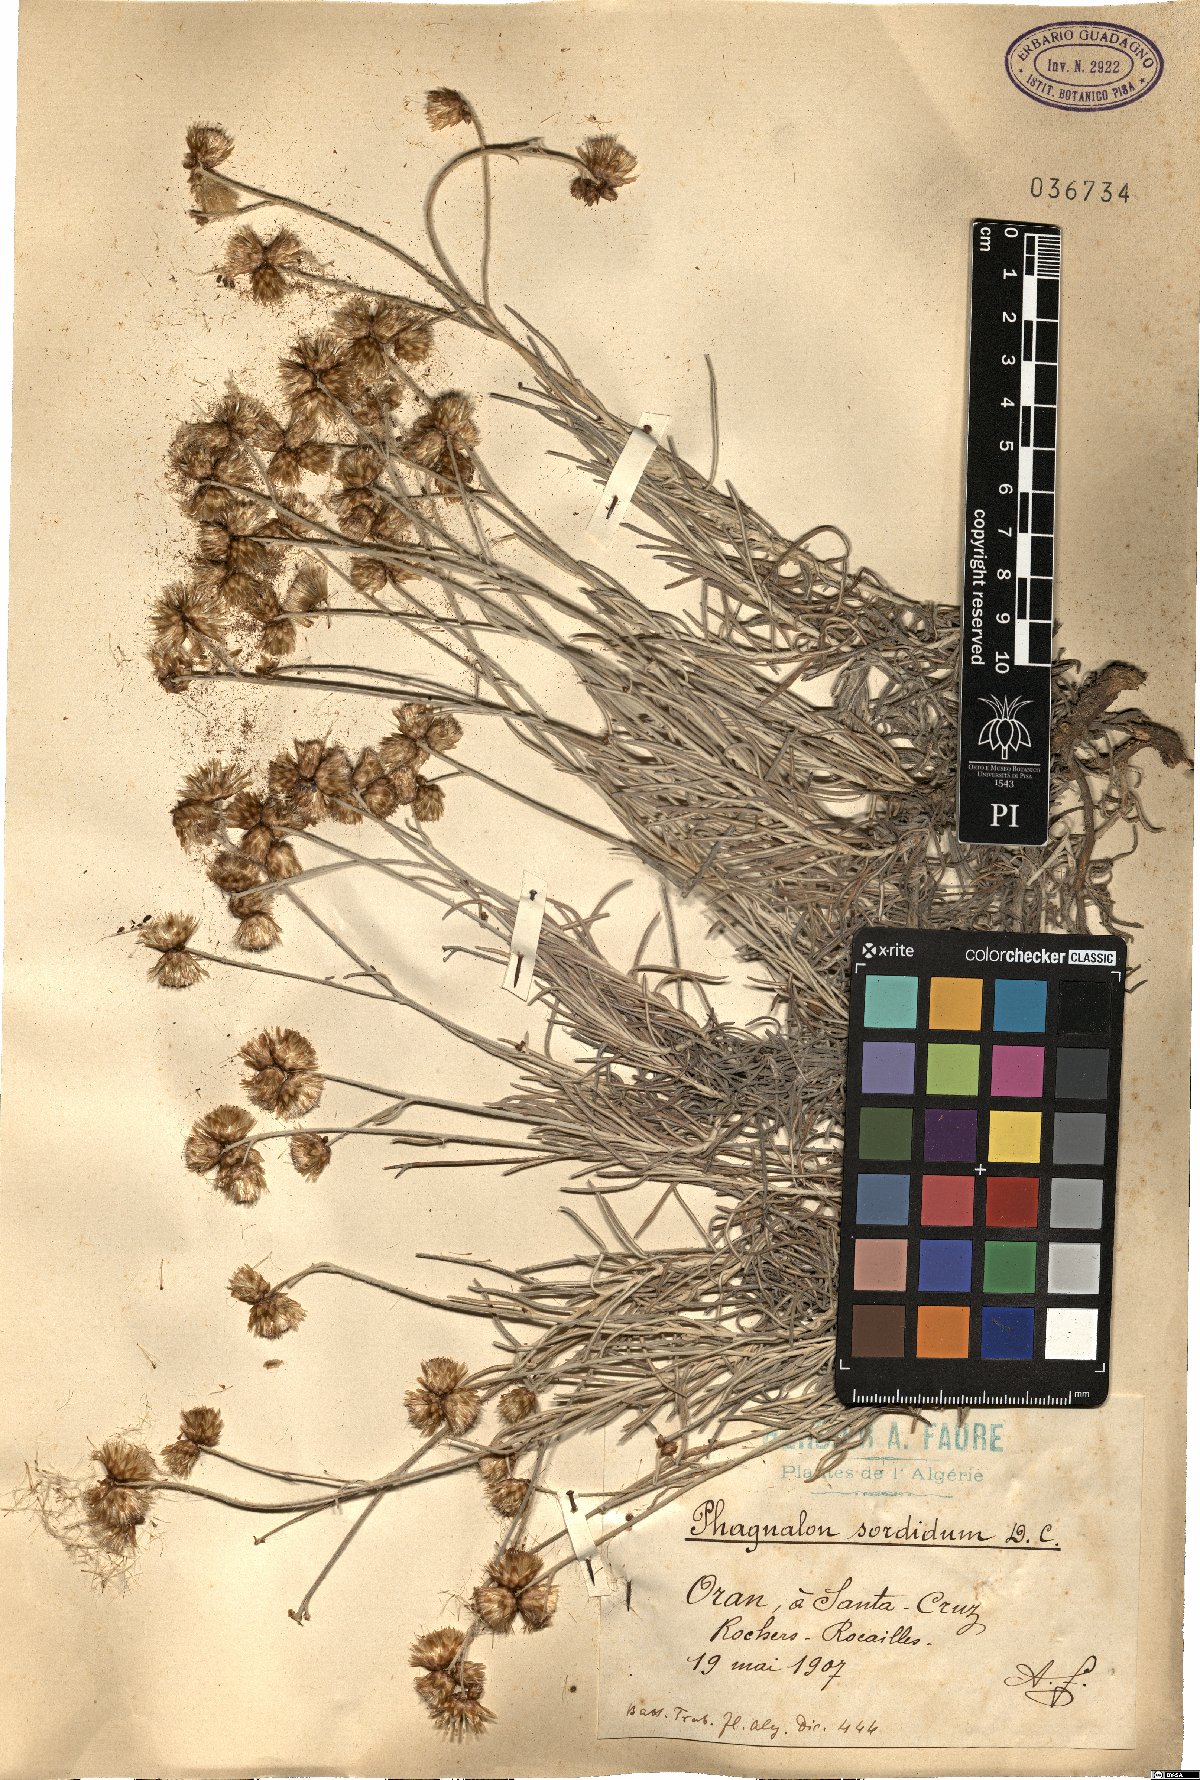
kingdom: Plantae
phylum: Tracheophyta
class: Magnoliopsida
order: Asterales
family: Asteraceae
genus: Phagnalon
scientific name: Phagnalon sordidum
